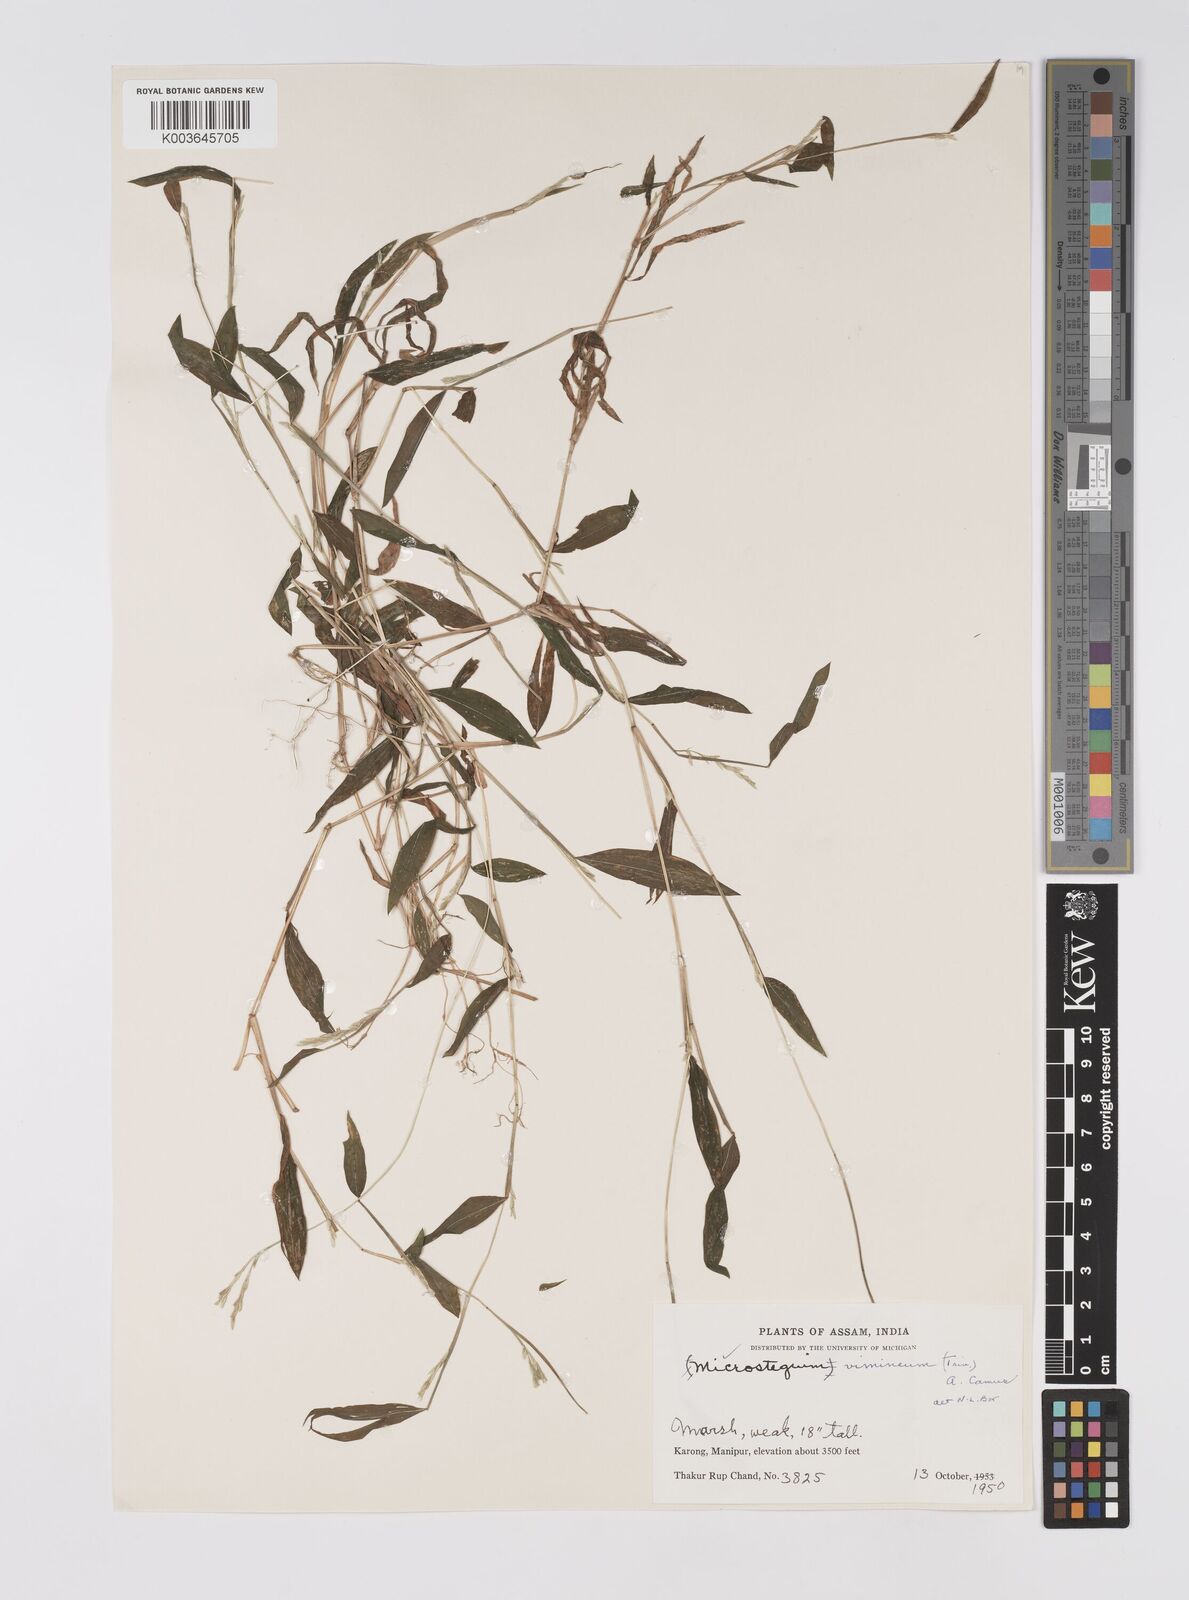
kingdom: Plantae
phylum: Tracheophyta
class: Liliopsida
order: Poales
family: Poaceae
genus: Microstegium
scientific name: Microstegium vimineum
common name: Japanese stiltgrass
